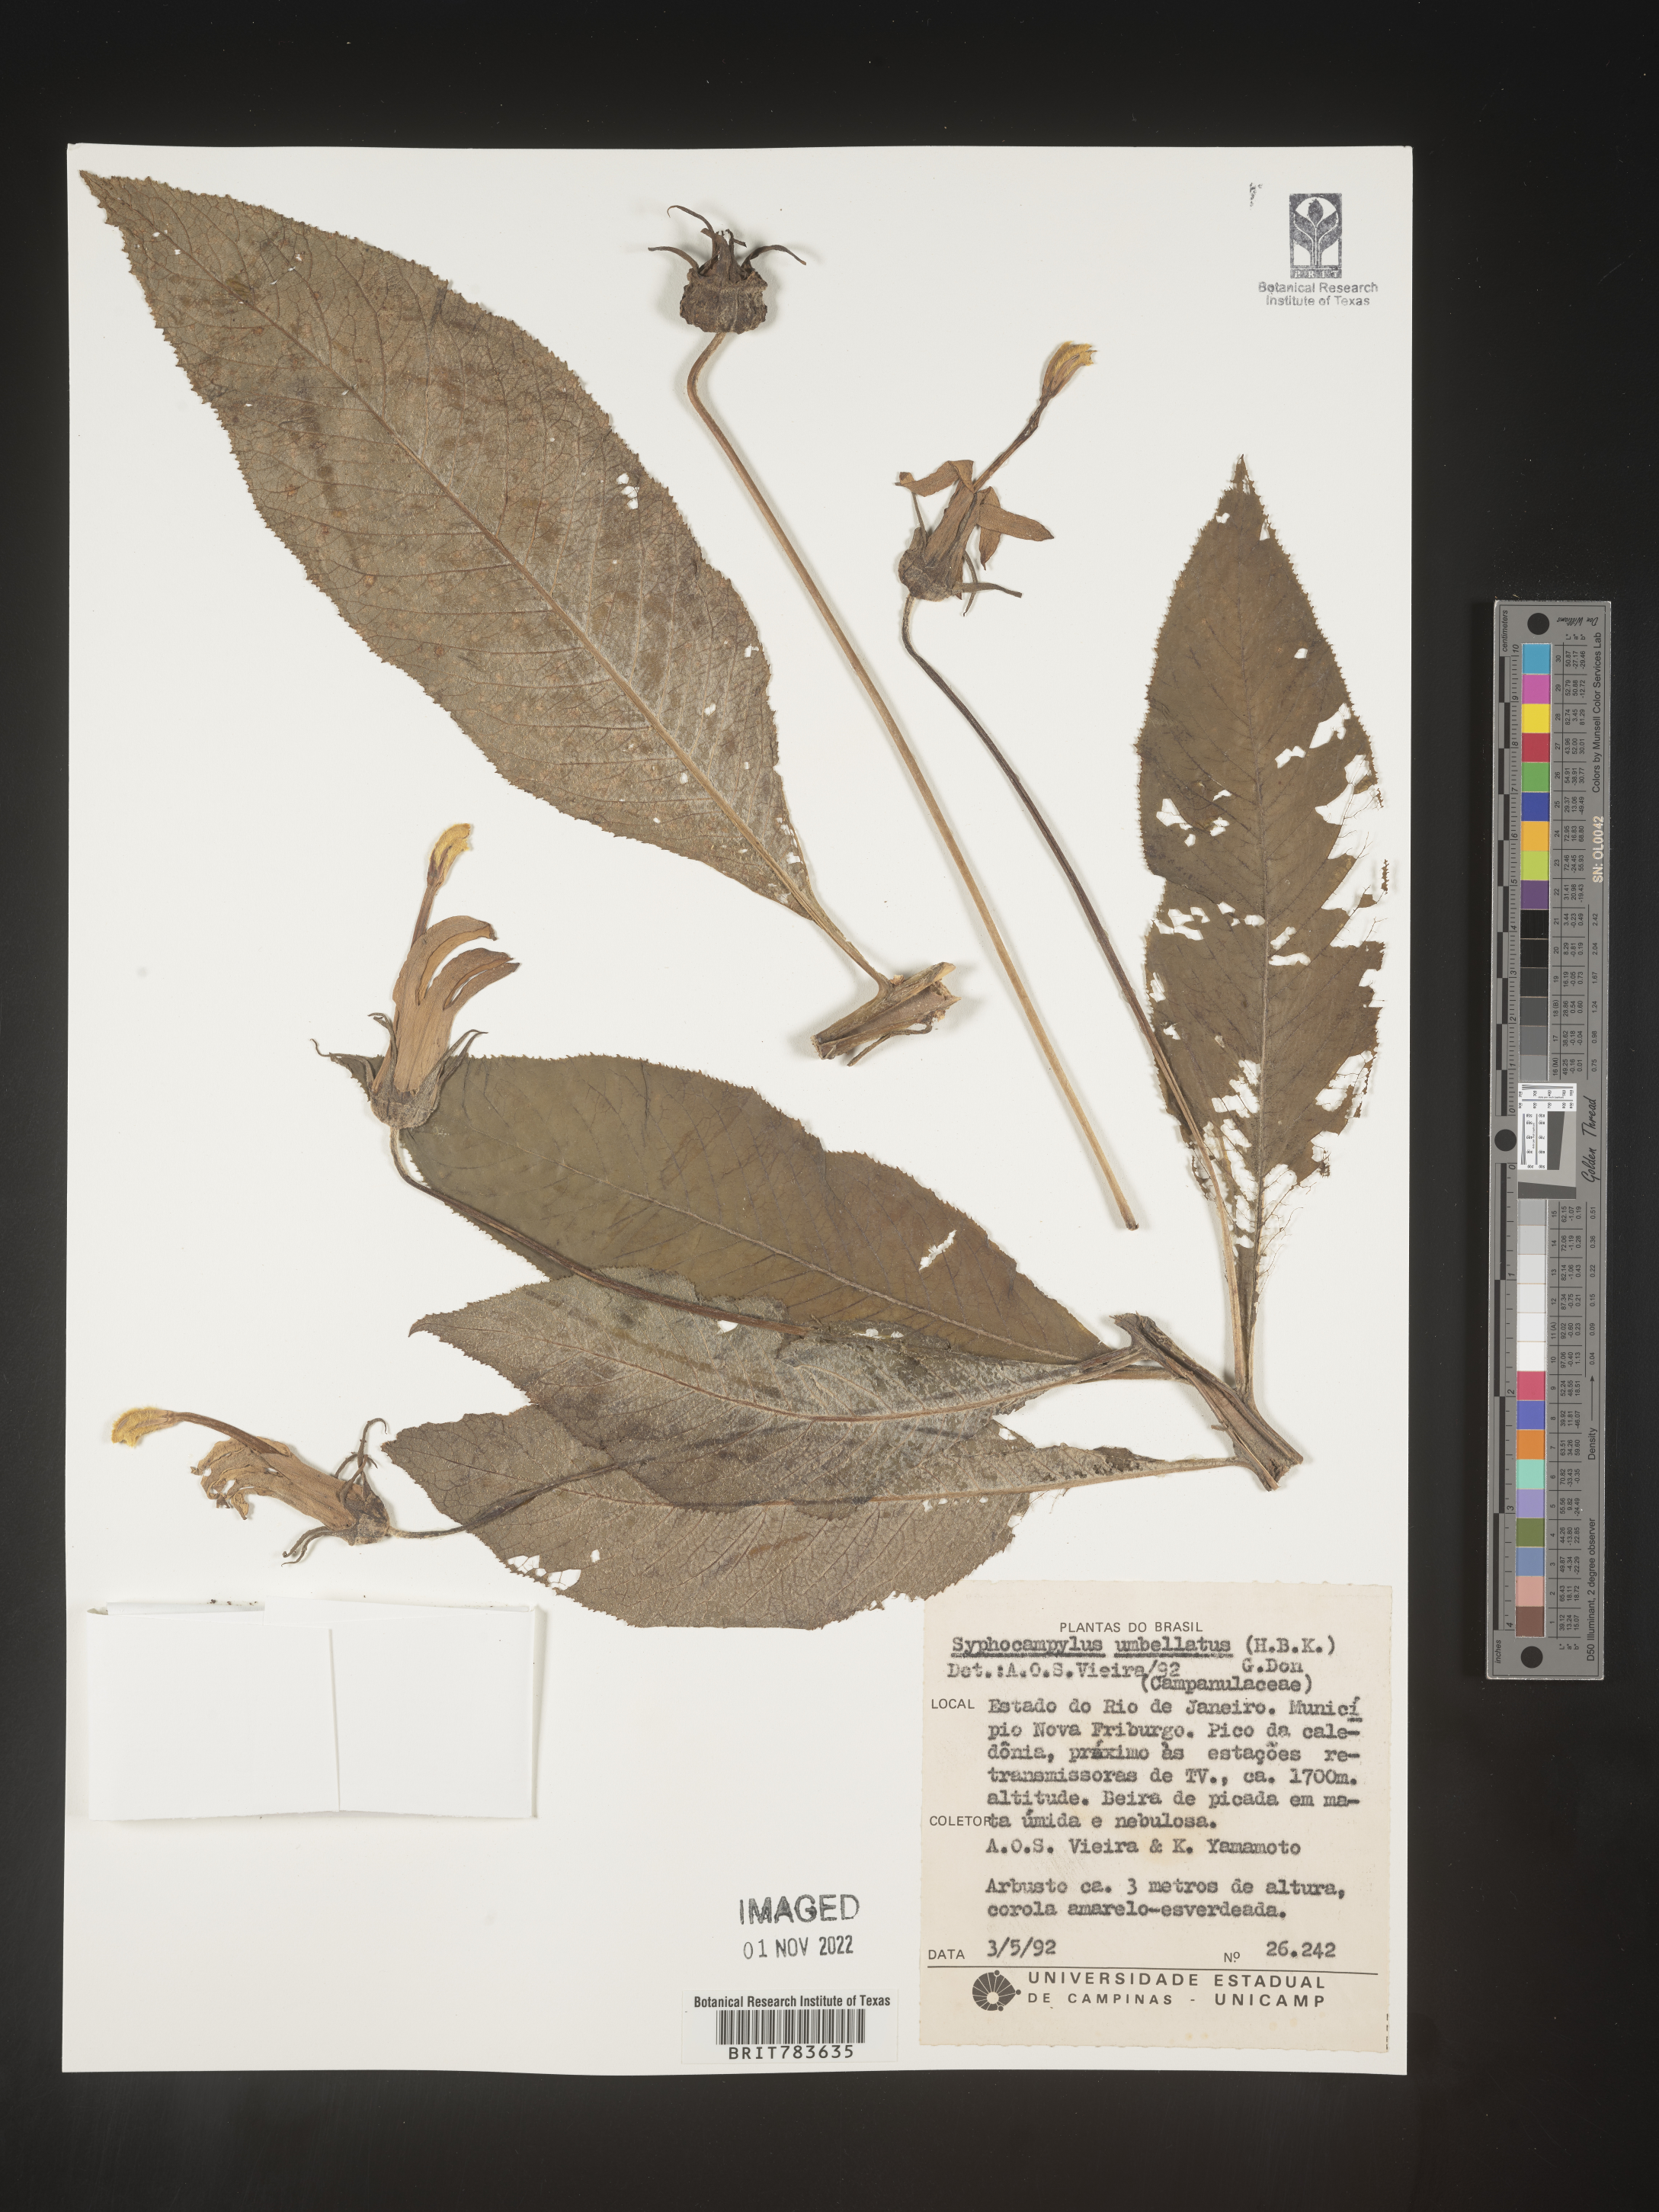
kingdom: Plantae
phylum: Tracheophyta
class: Magnoliopsida
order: Asterales
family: Campanulaceae
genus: Siphocampylus
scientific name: Siphocampylus
